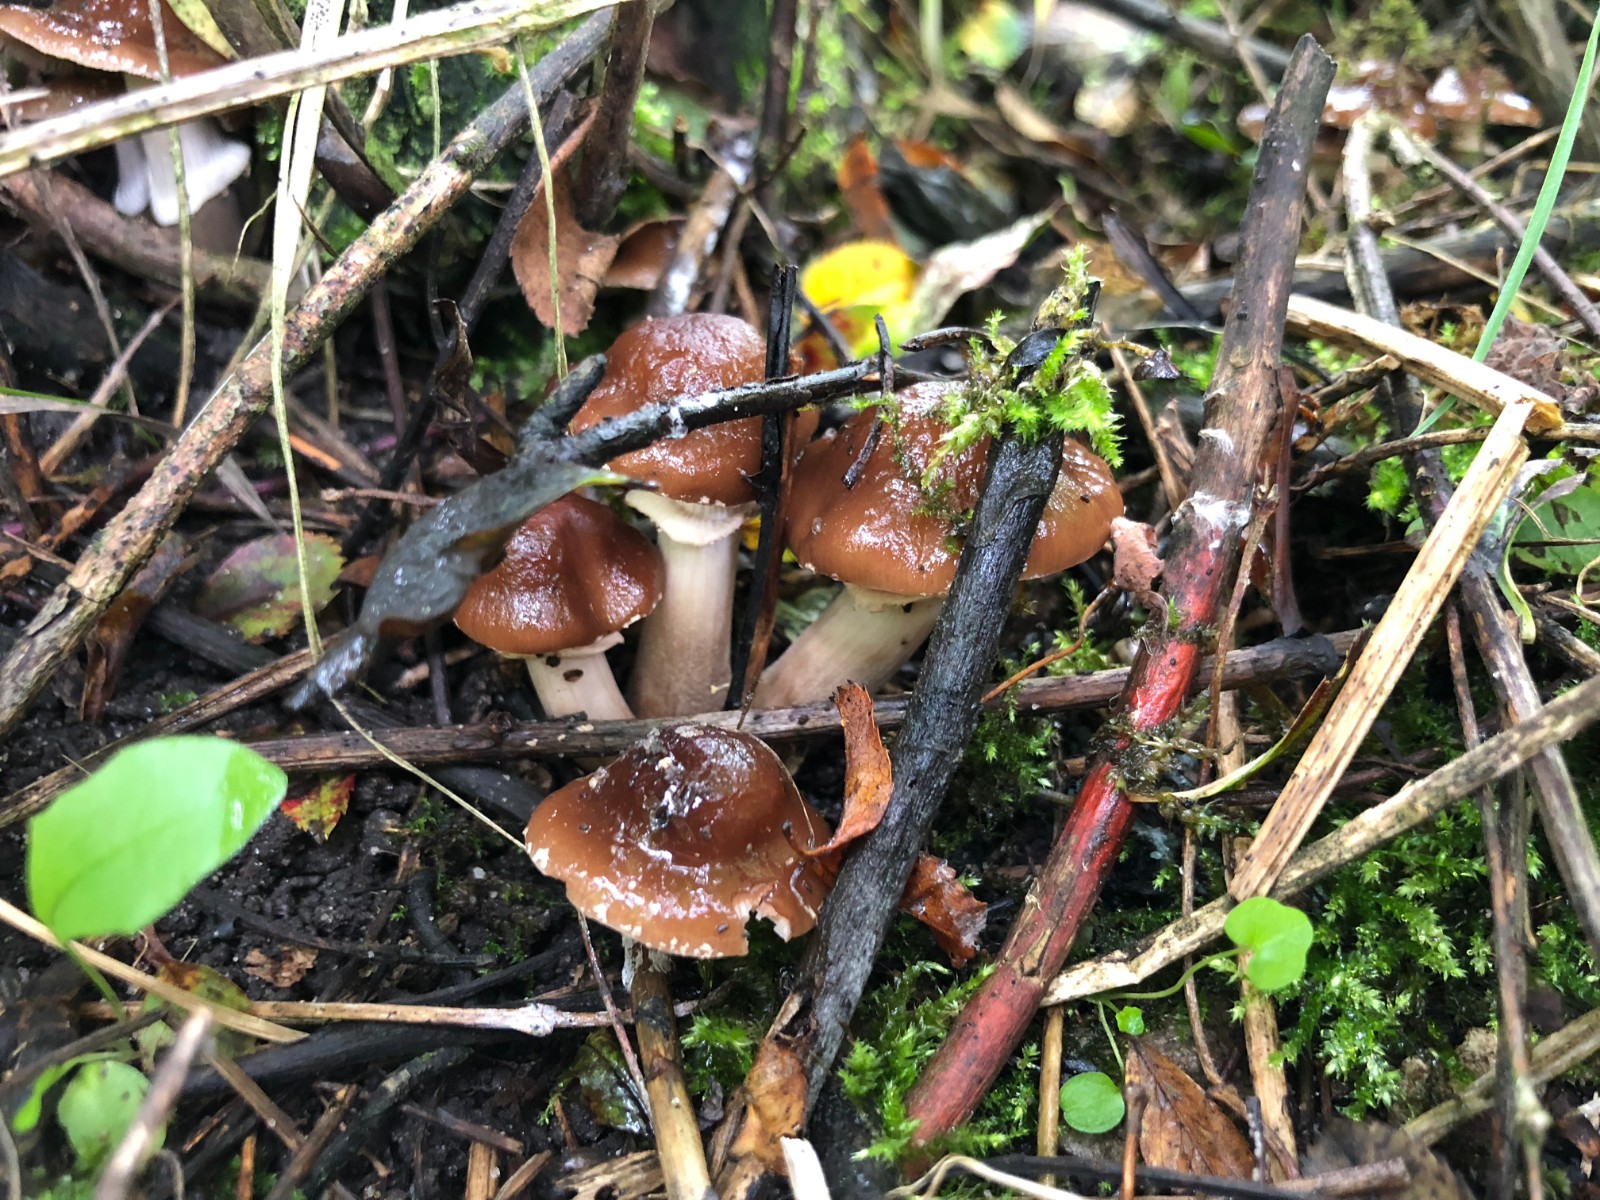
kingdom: Fungi
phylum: Basidiomycota
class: Agaricomycetes
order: Agaricales
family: Tubariaceae
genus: Cyclocybe
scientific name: Cyclocybe erebia
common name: mørk agerhat
